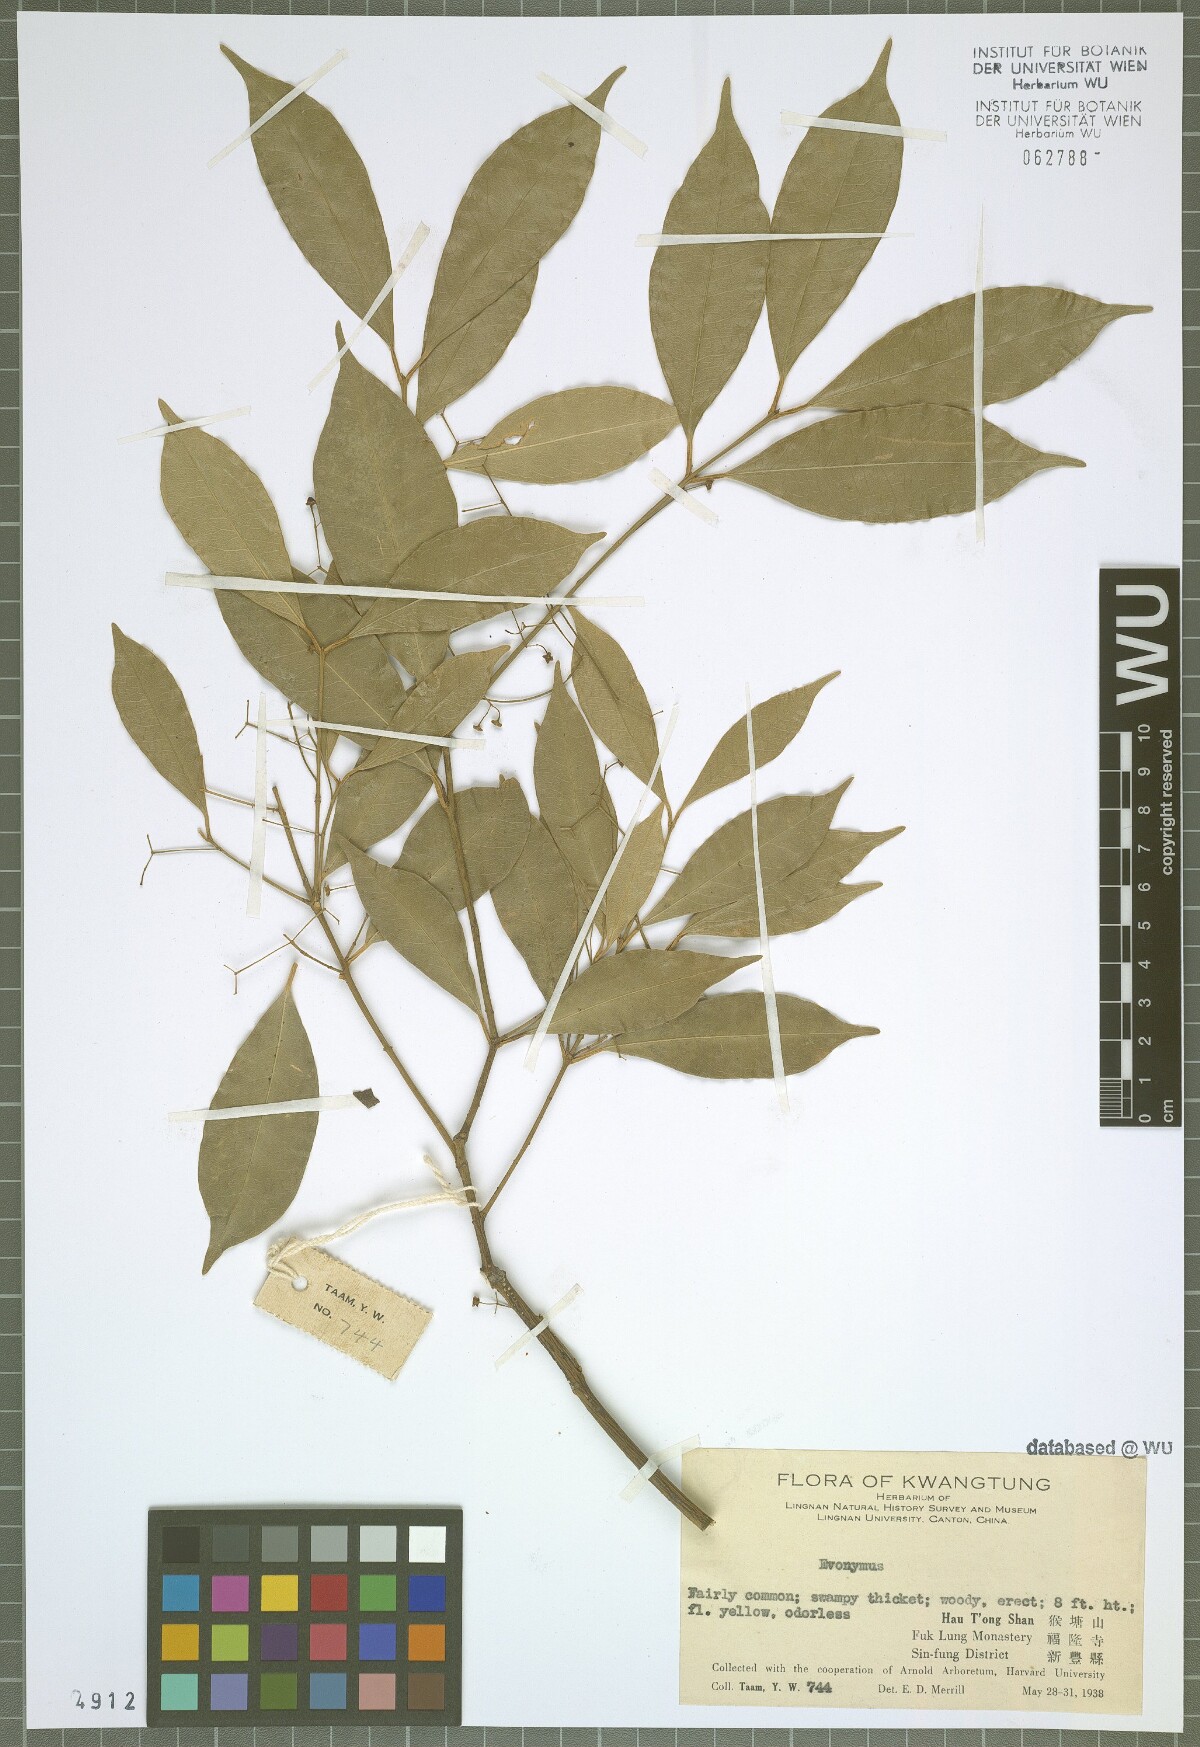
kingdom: Plantae
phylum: Tracheophyta
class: Magnoliopsida
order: Celastrales
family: Celastraceae
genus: Euonymus
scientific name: Euonymus
